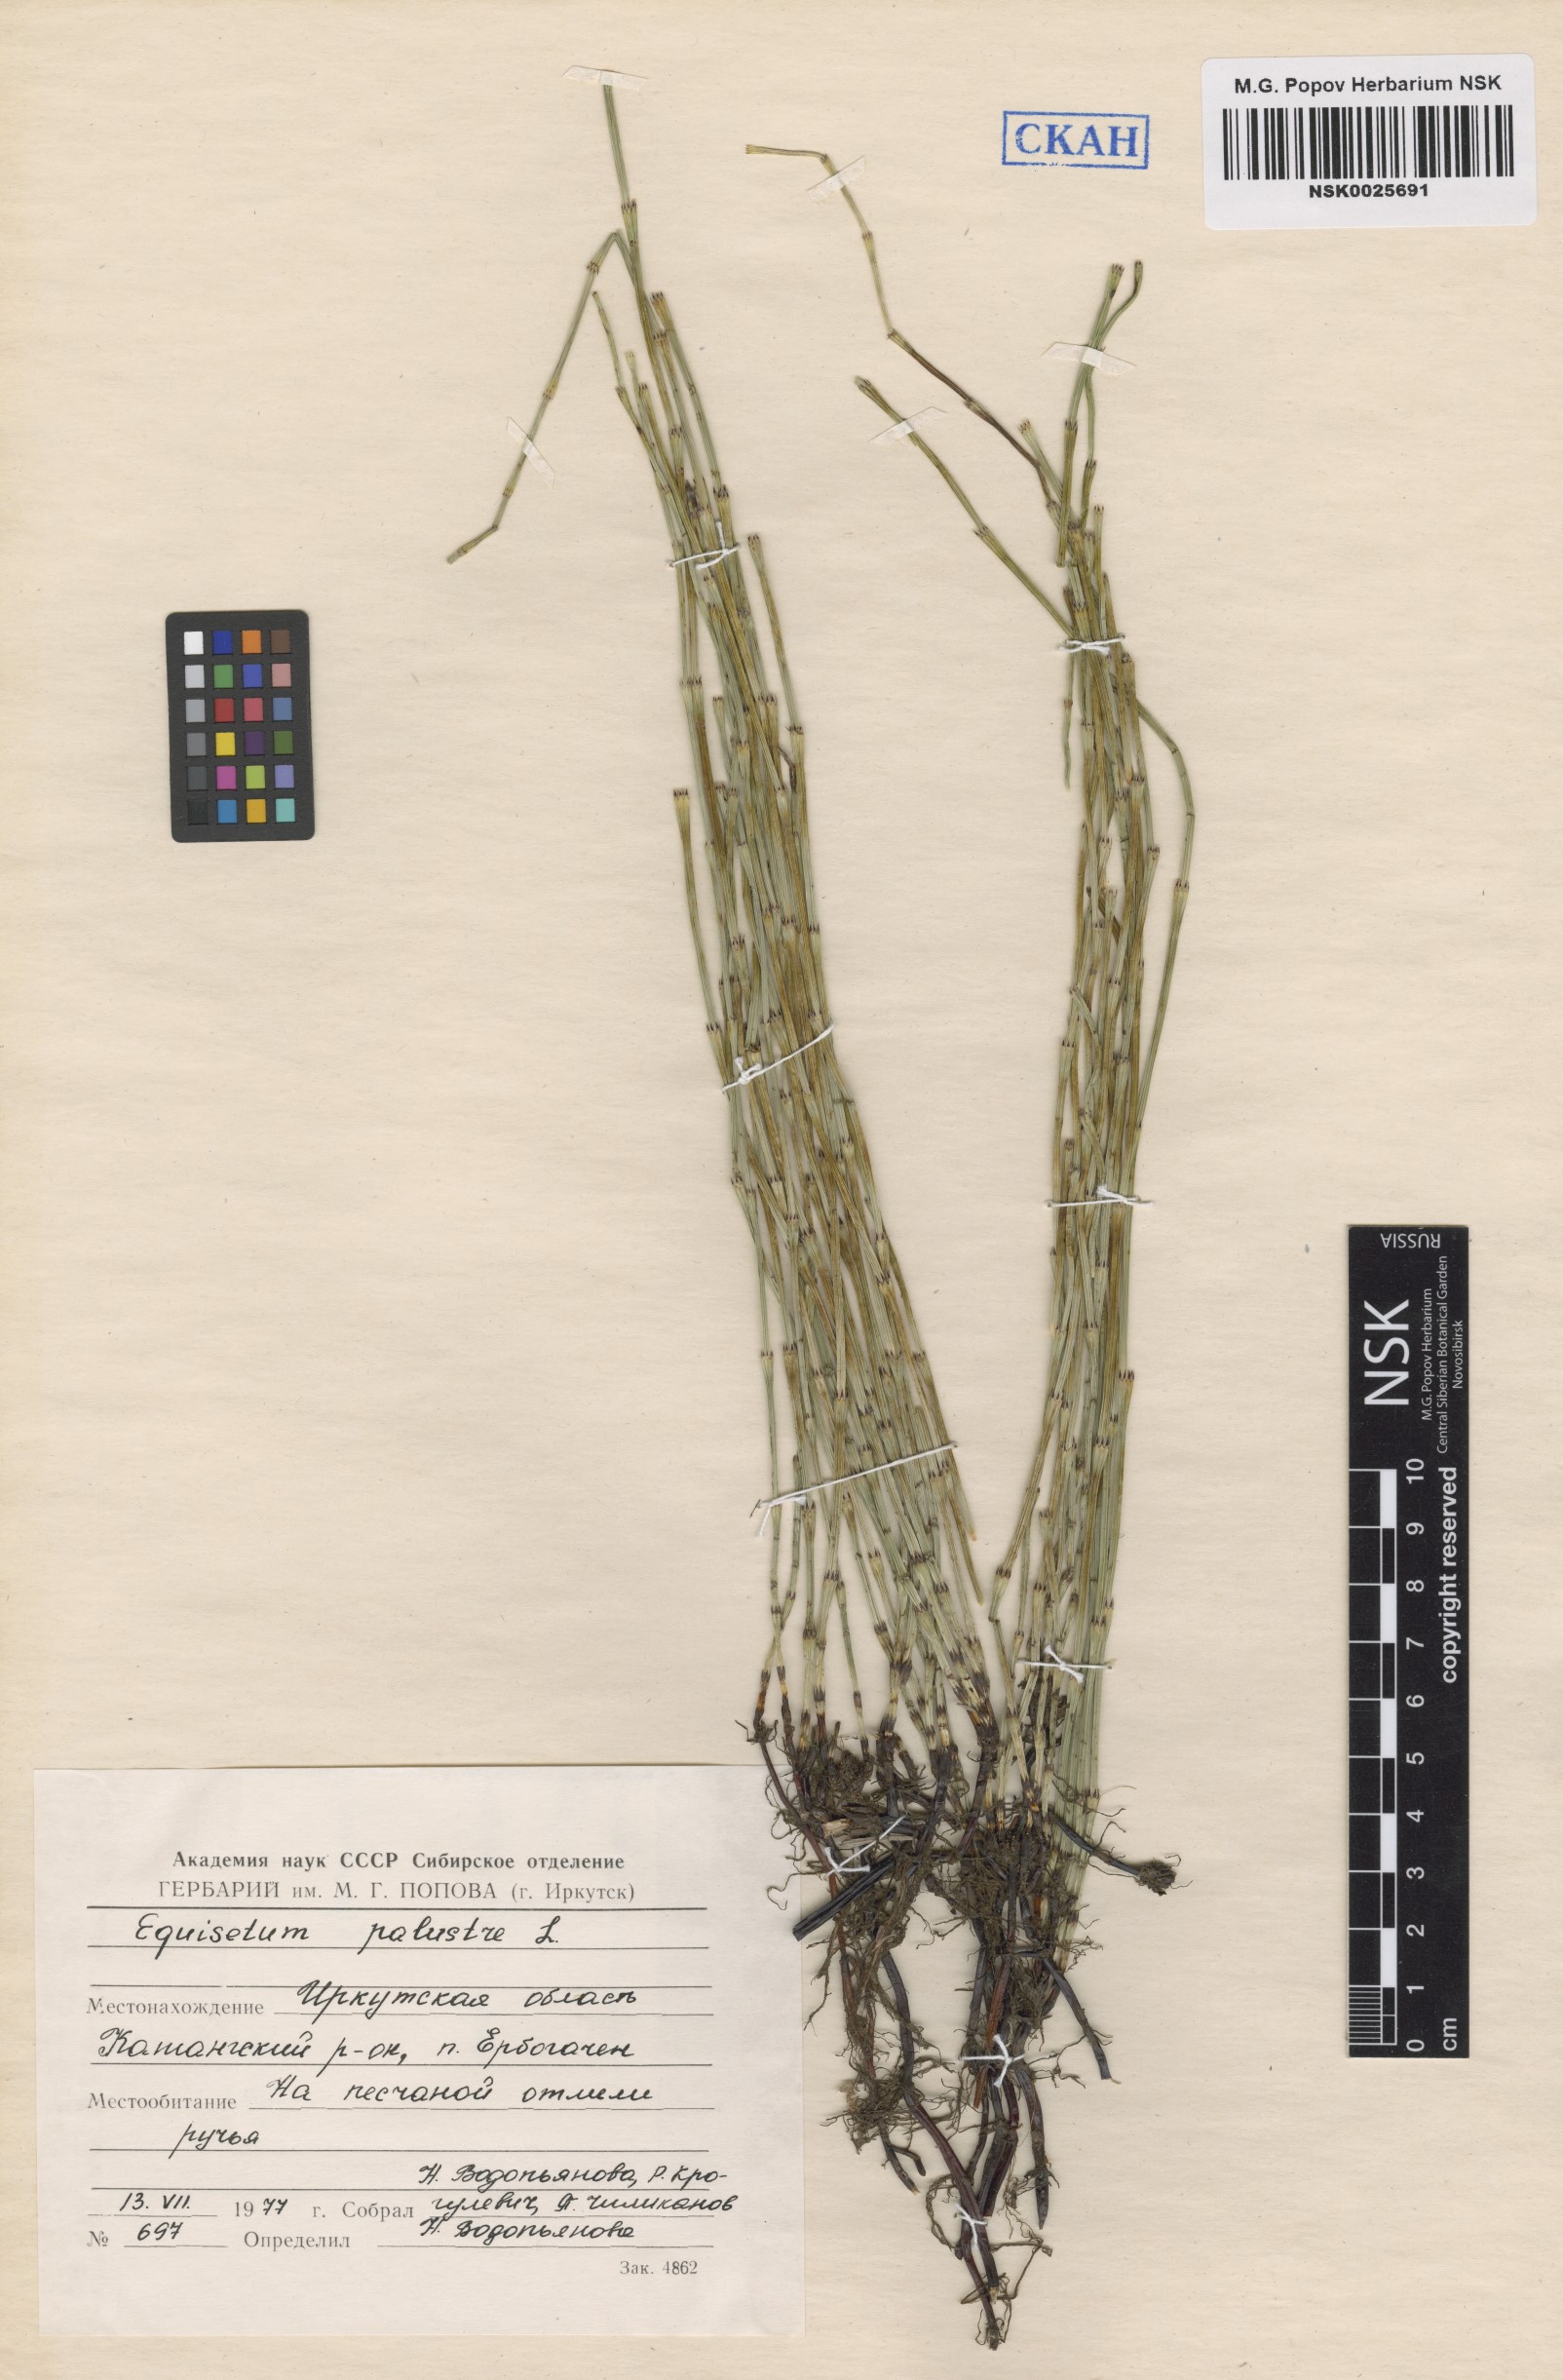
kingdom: Plantae
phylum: Tracheophyta
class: Polypodiopsida
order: Equisetales
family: Equisetaceae
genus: Equisetum
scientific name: Equisetum palustre
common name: Marsh horsetail
